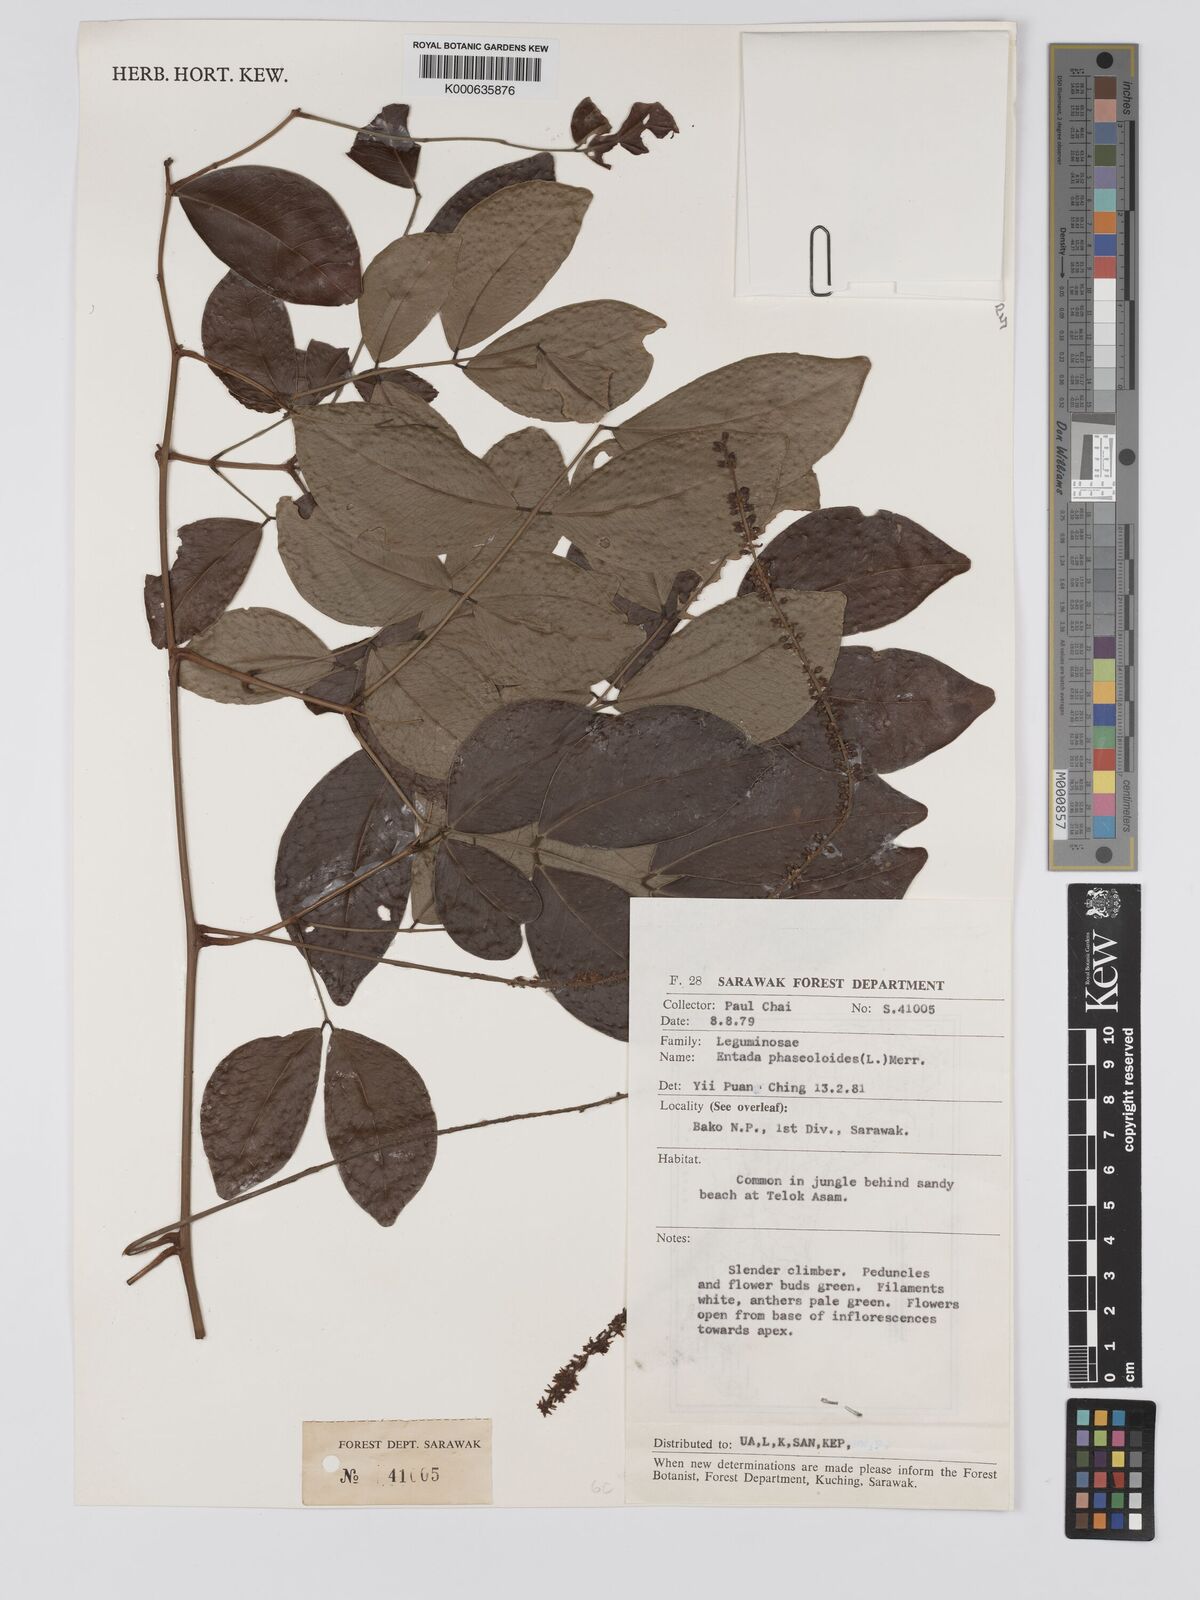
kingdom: Plantae
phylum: Tracheophyta
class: Magnoliopsida
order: Fabales
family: Fabaceae
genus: Entada
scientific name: Entada phaseoloides
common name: Matchbox-bean
